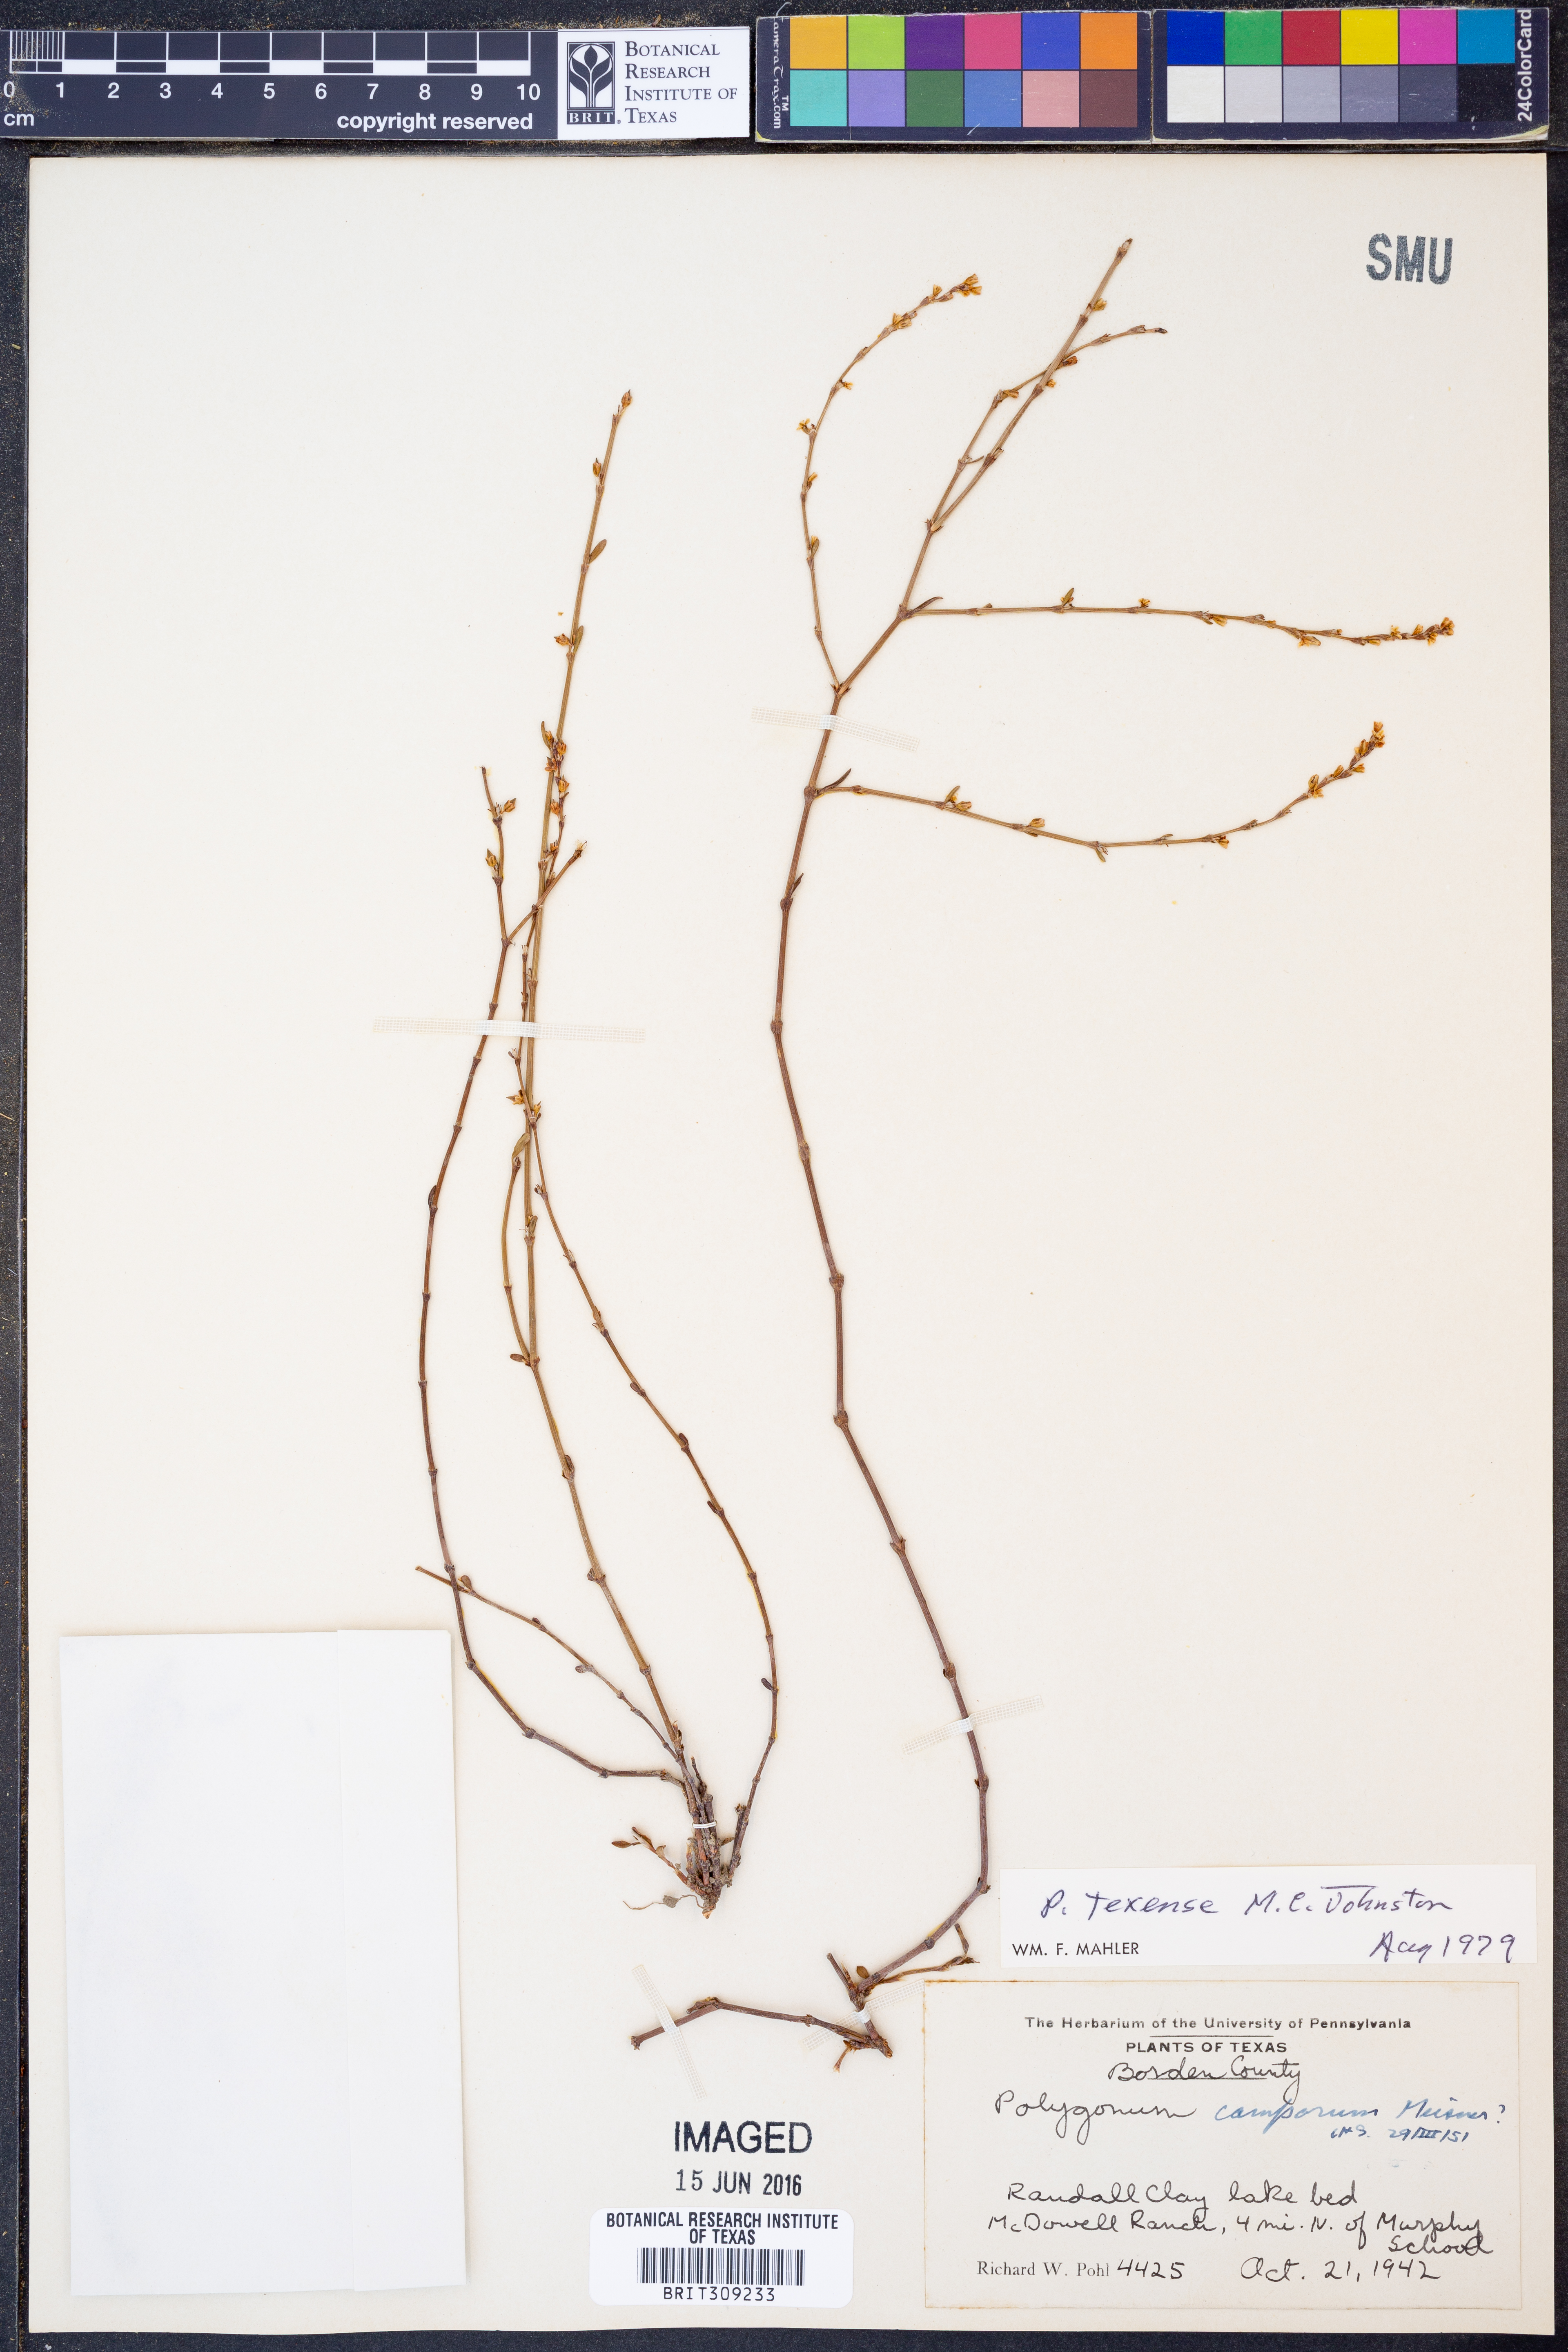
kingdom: Plantae
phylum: Tracheophyta
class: Magnoliopsida
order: Caryophyllales
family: Polygonaceae
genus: Polygonum
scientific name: Polygonum striatulum
